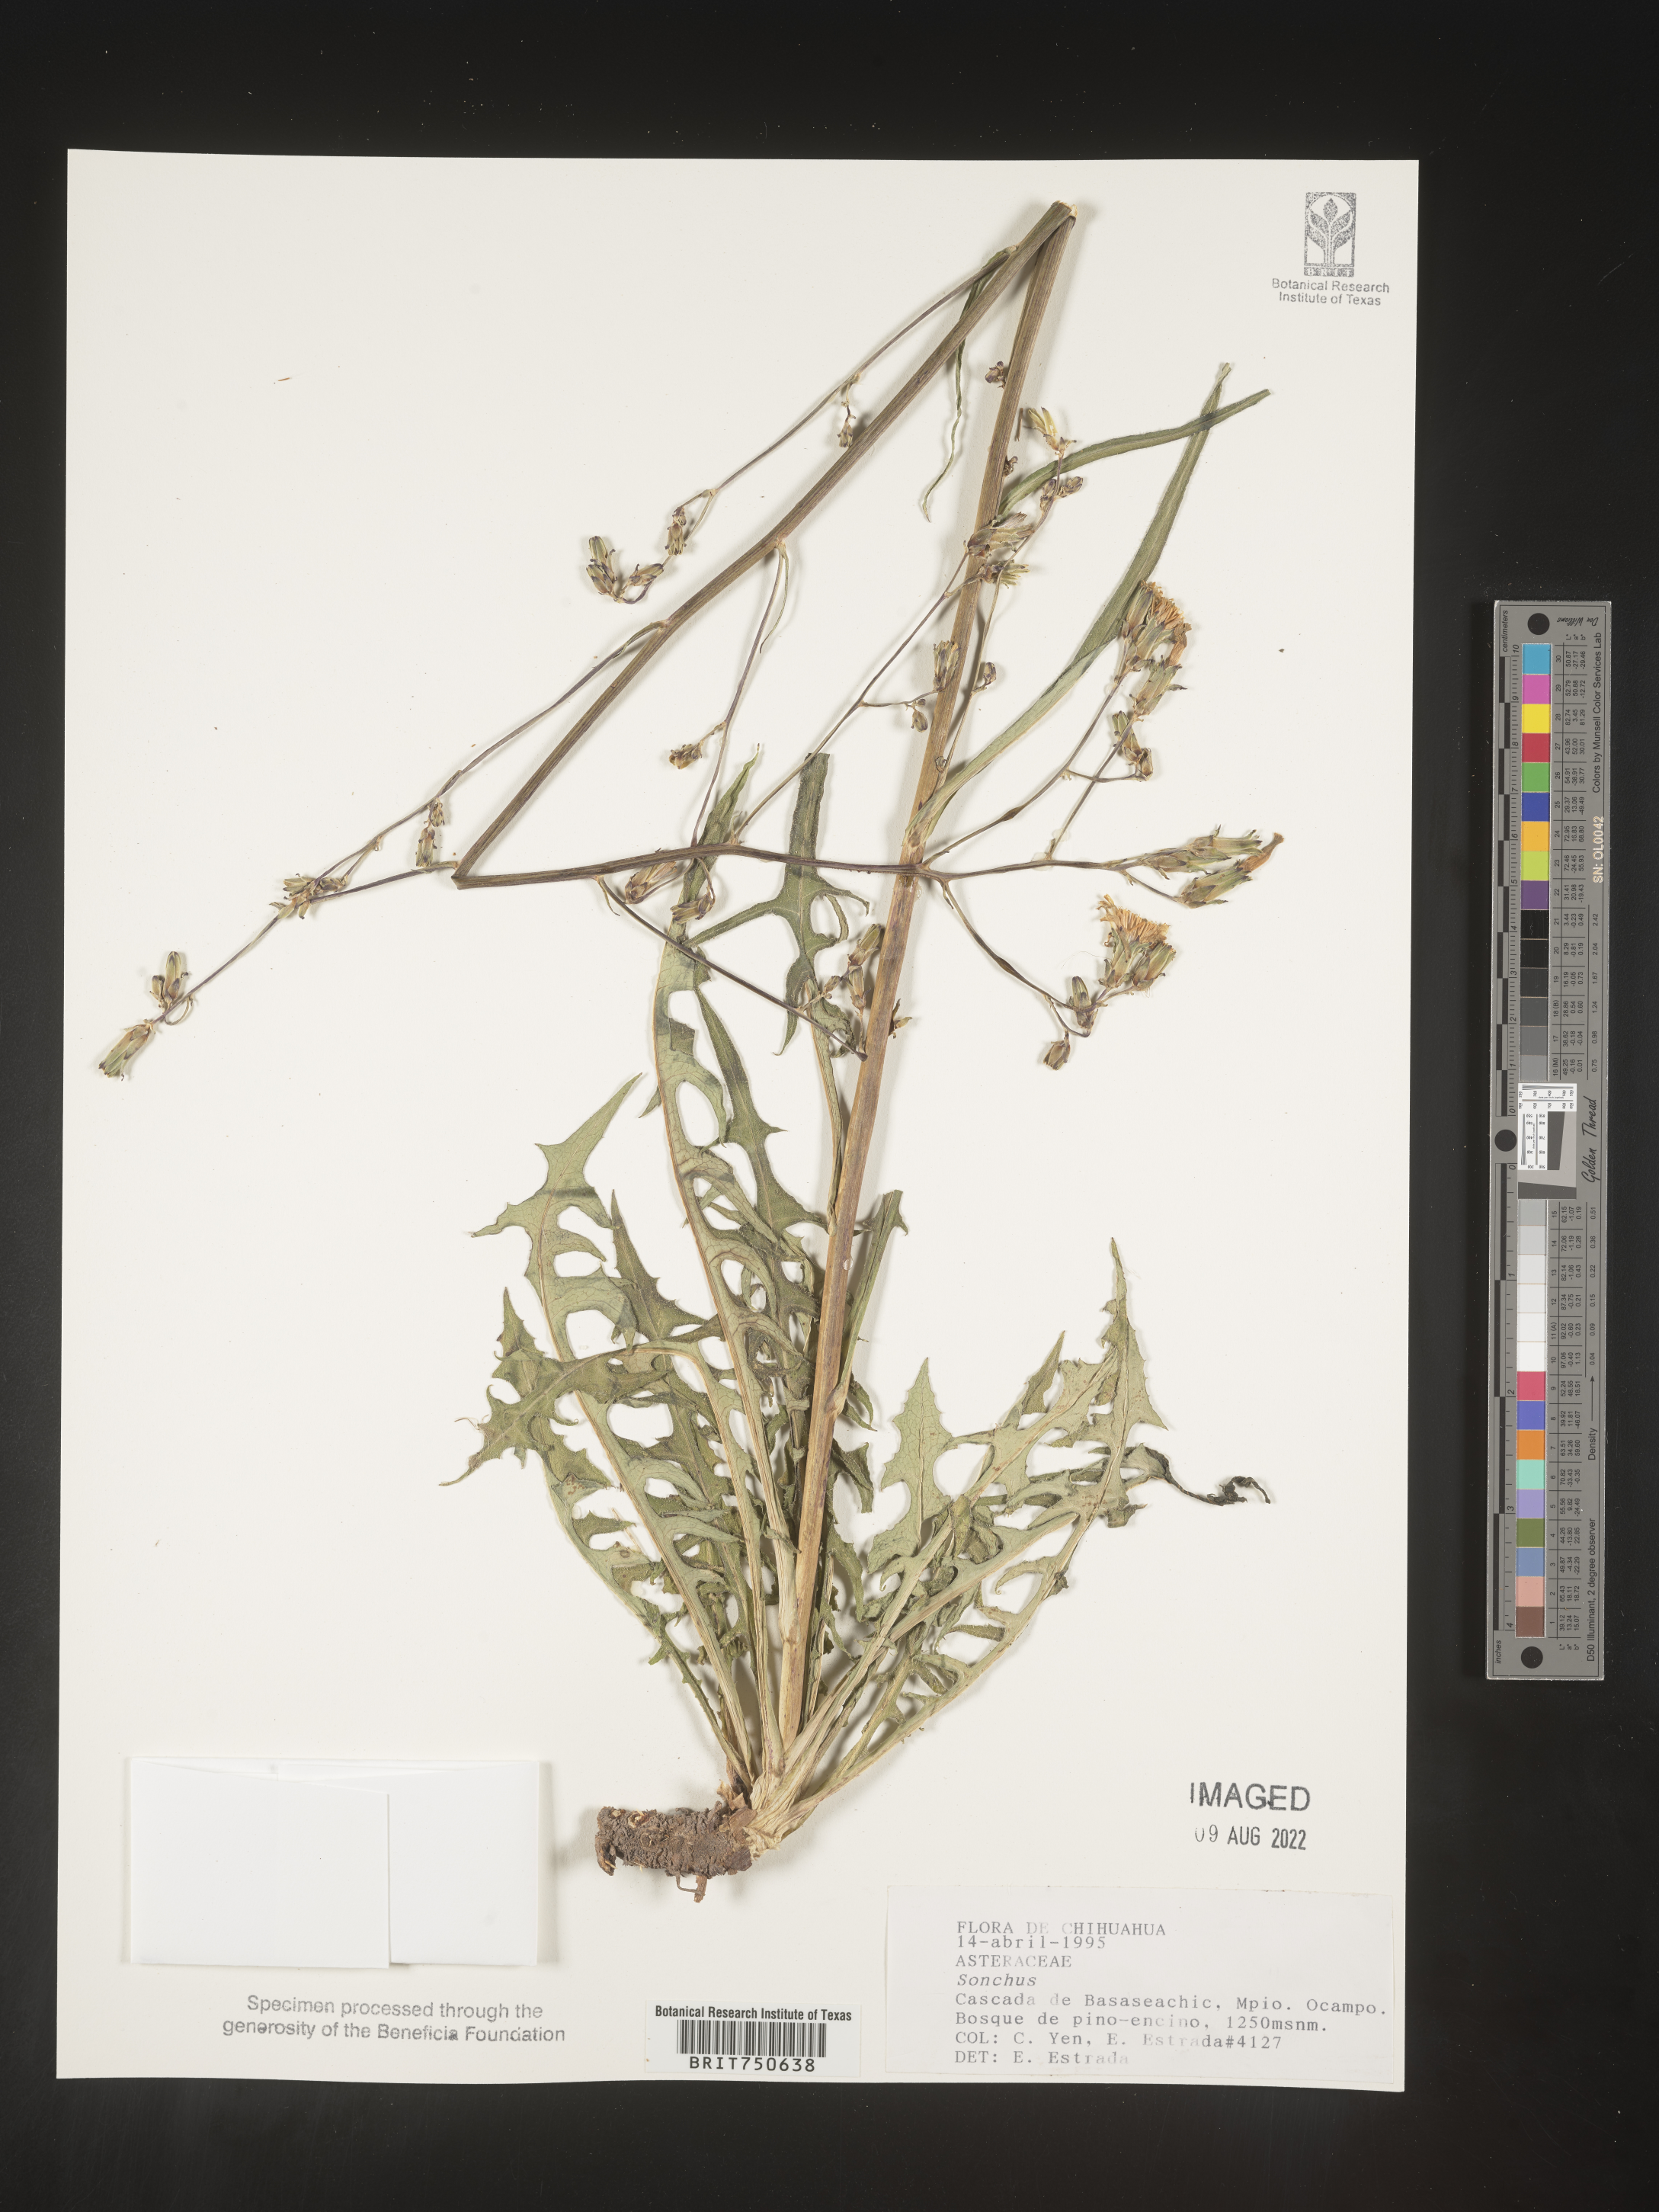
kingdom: Plantae
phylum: Tracheophyta
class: Magnoliopsida
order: Asterales
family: Asteraceae
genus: Sonchus
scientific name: Sonchus
